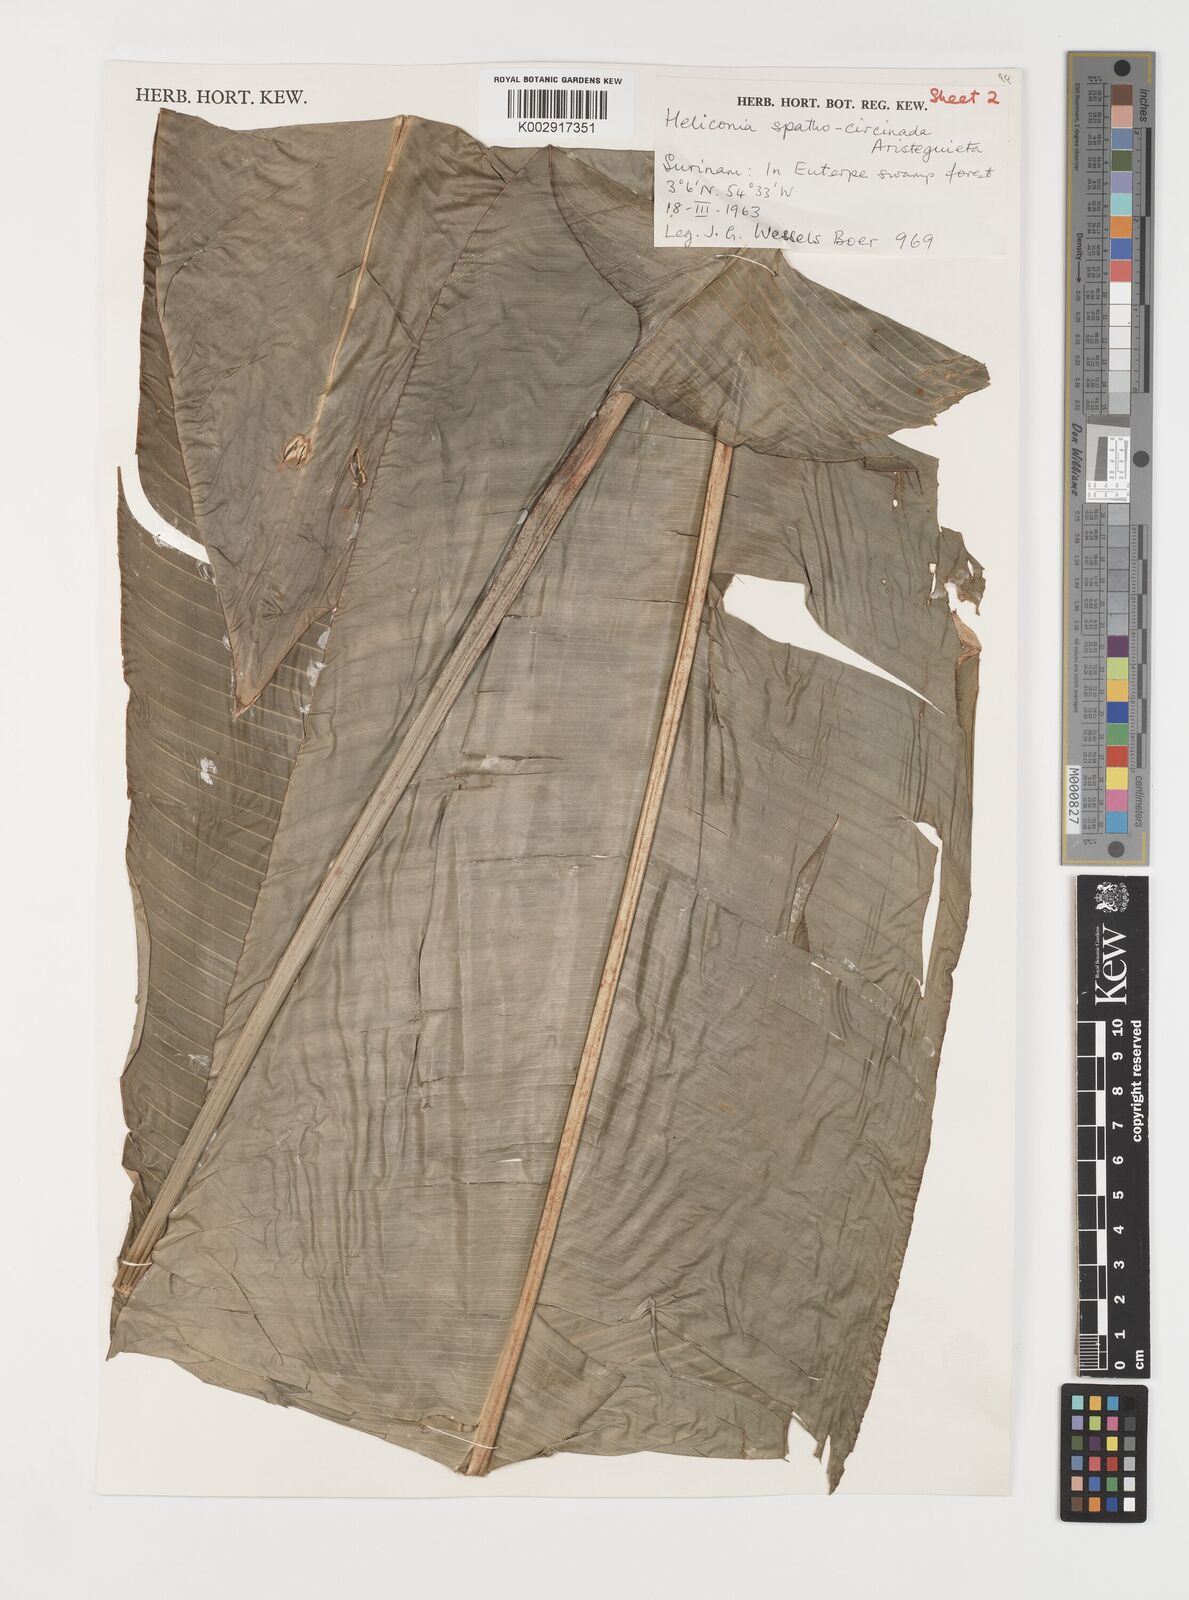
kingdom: Plantae
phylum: Tracheophyta
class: Liliopsida
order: Zingiberales
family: Heliconiaceae
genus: Heliconia
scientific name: Heliconia spathocircinata
